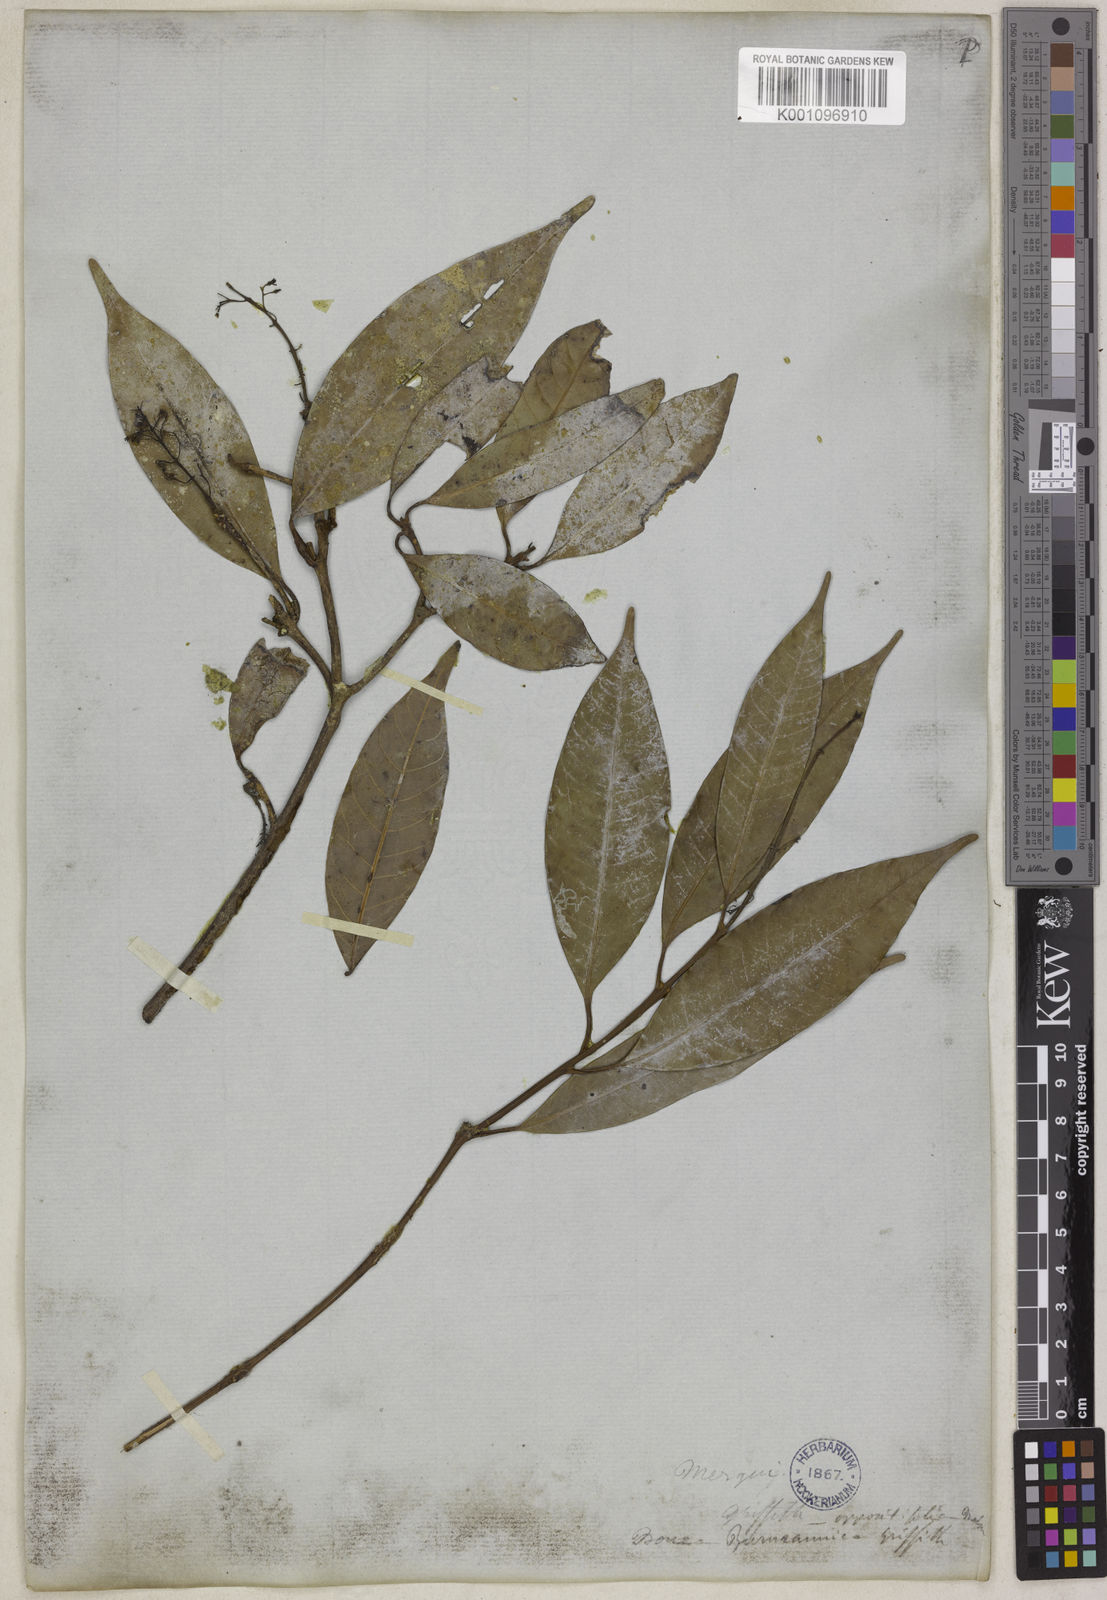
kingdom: Plantae
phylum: Tracheophyta
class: Magnoliopsida
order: Sapindales
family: Anacardiaceae
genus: Bouea
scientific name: Bouea oppositifolia
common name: Narrow-leaved kundang
